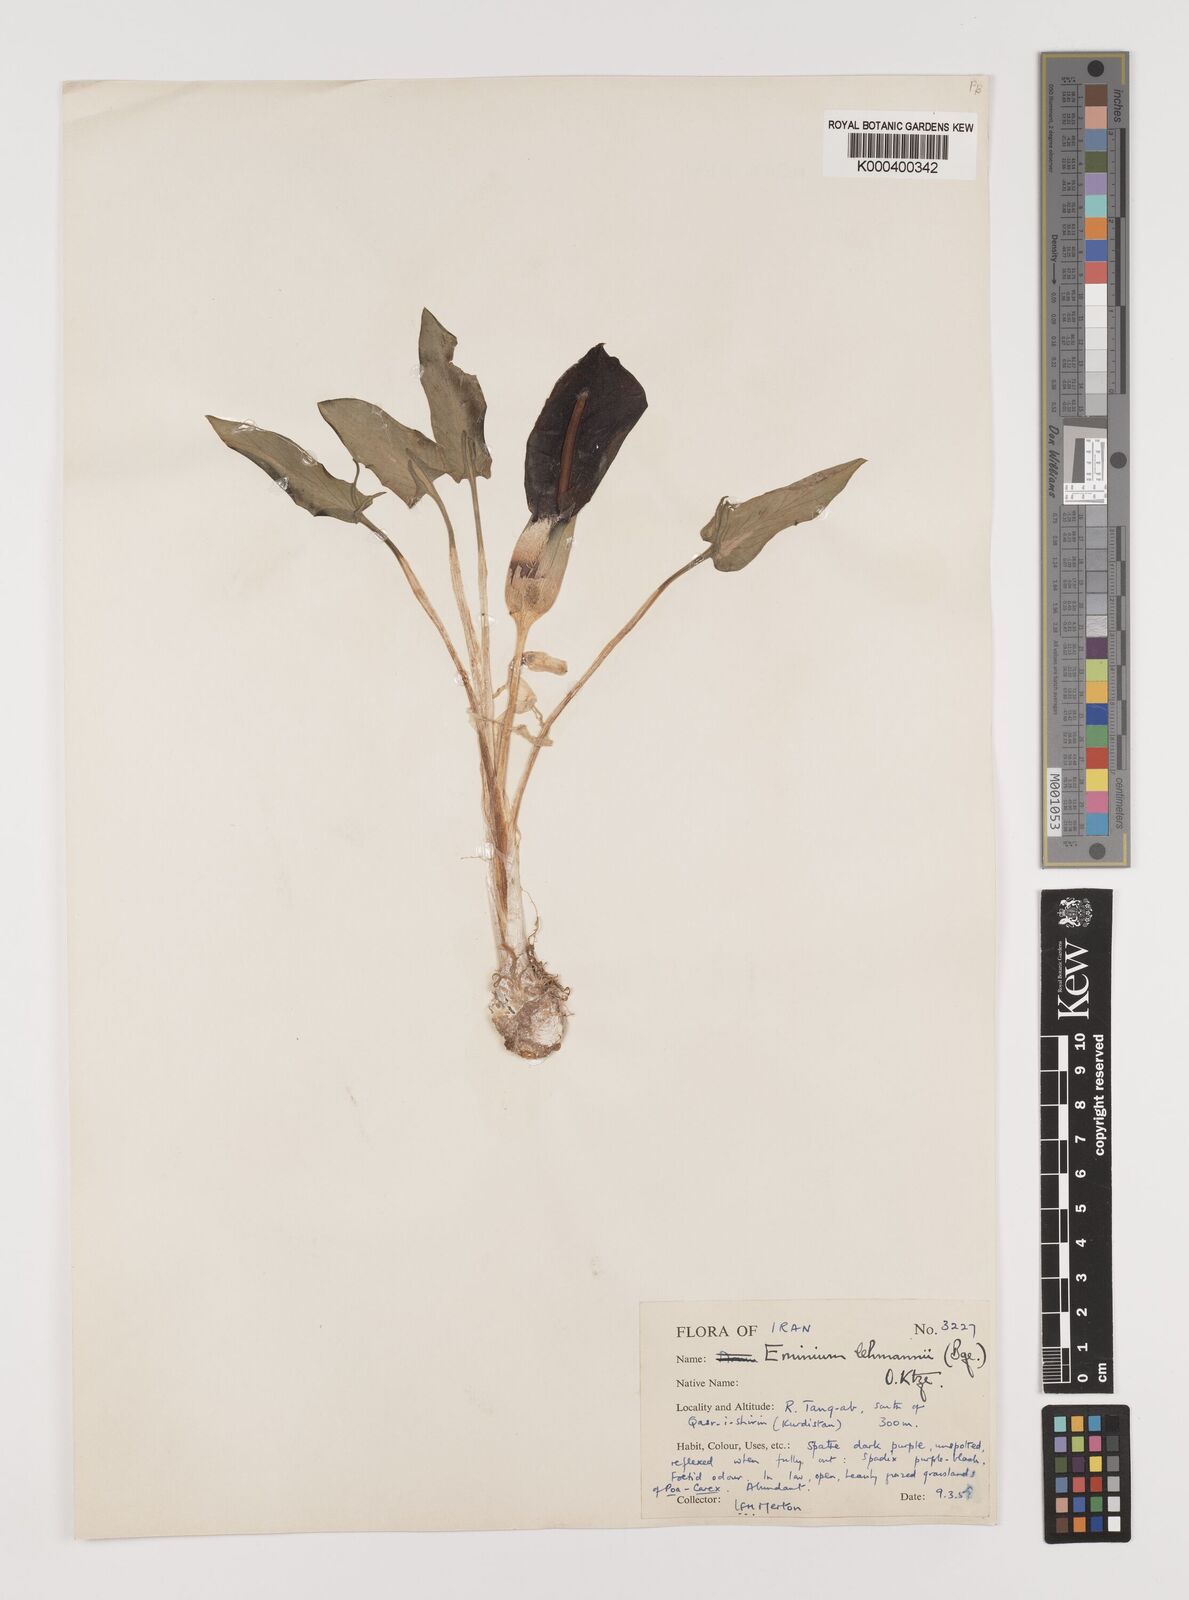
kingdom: Plantae
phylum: Tracheophyta
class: Liliopsida
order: Alismatales
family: Araceae
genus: Eminium
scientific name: Eminium lehmannii
